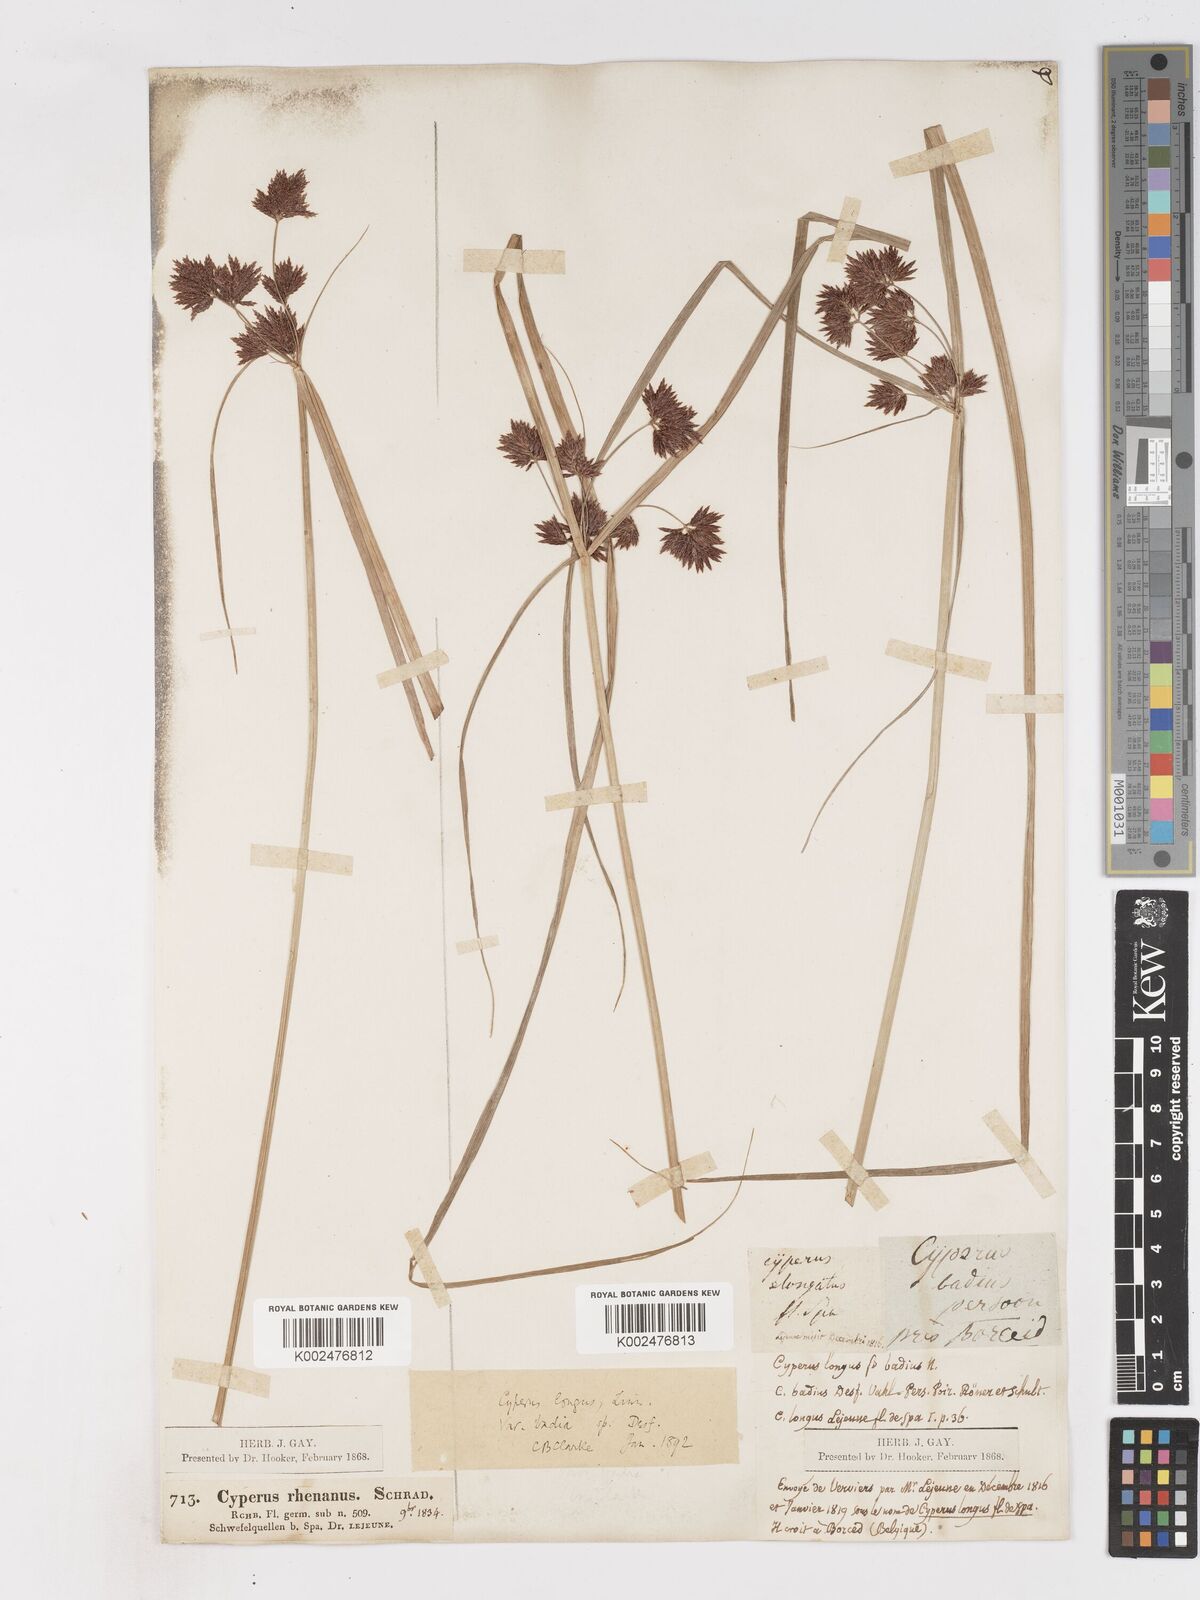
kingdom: Plantae
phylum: Tracheophyta
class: Liliopsida
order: Poales
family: Cyperaceae
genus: Cyperus
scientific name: Cyperus longus
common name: Galingale
